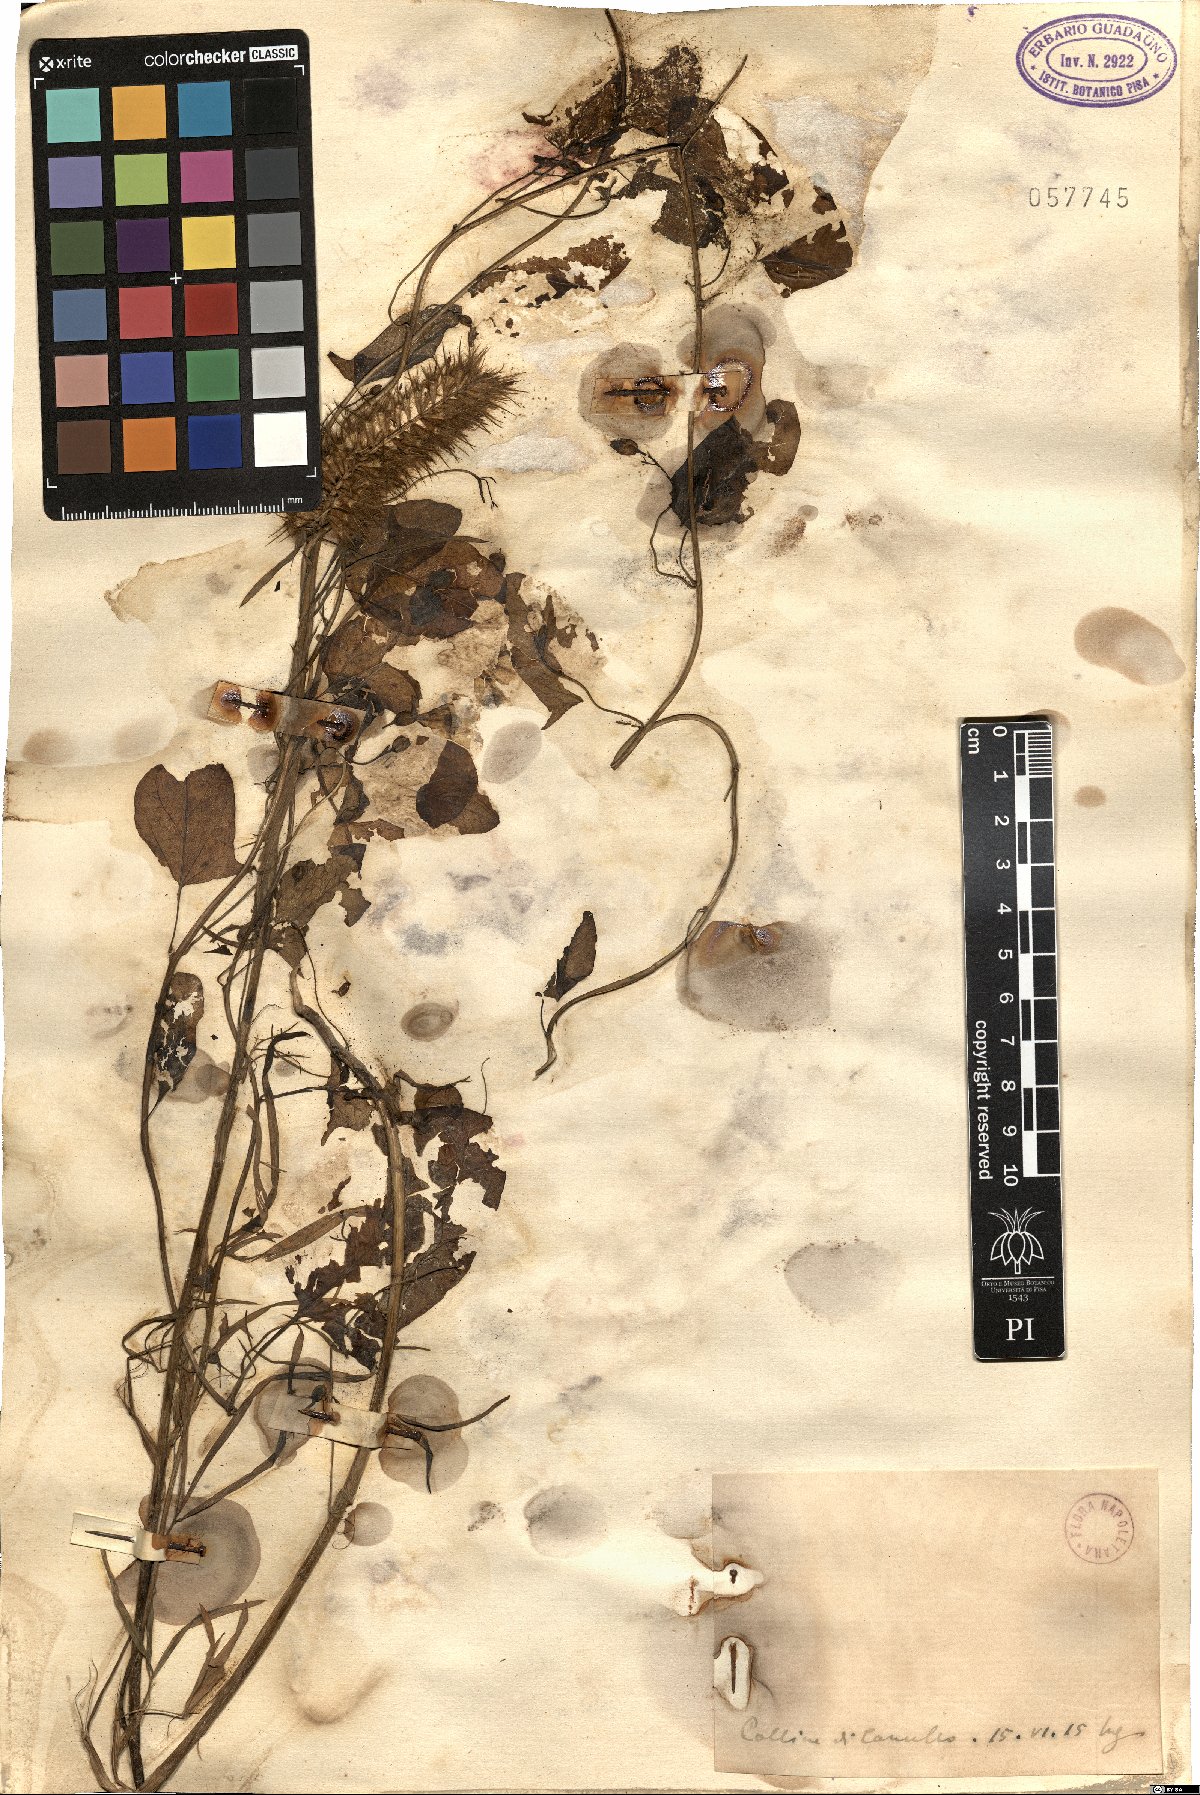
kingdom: Plantae
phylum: Tracheophyta
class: Magnoliopsida
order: Solanales
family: Convolvulaceae
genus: Convolvulus
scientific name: Convolvulus
